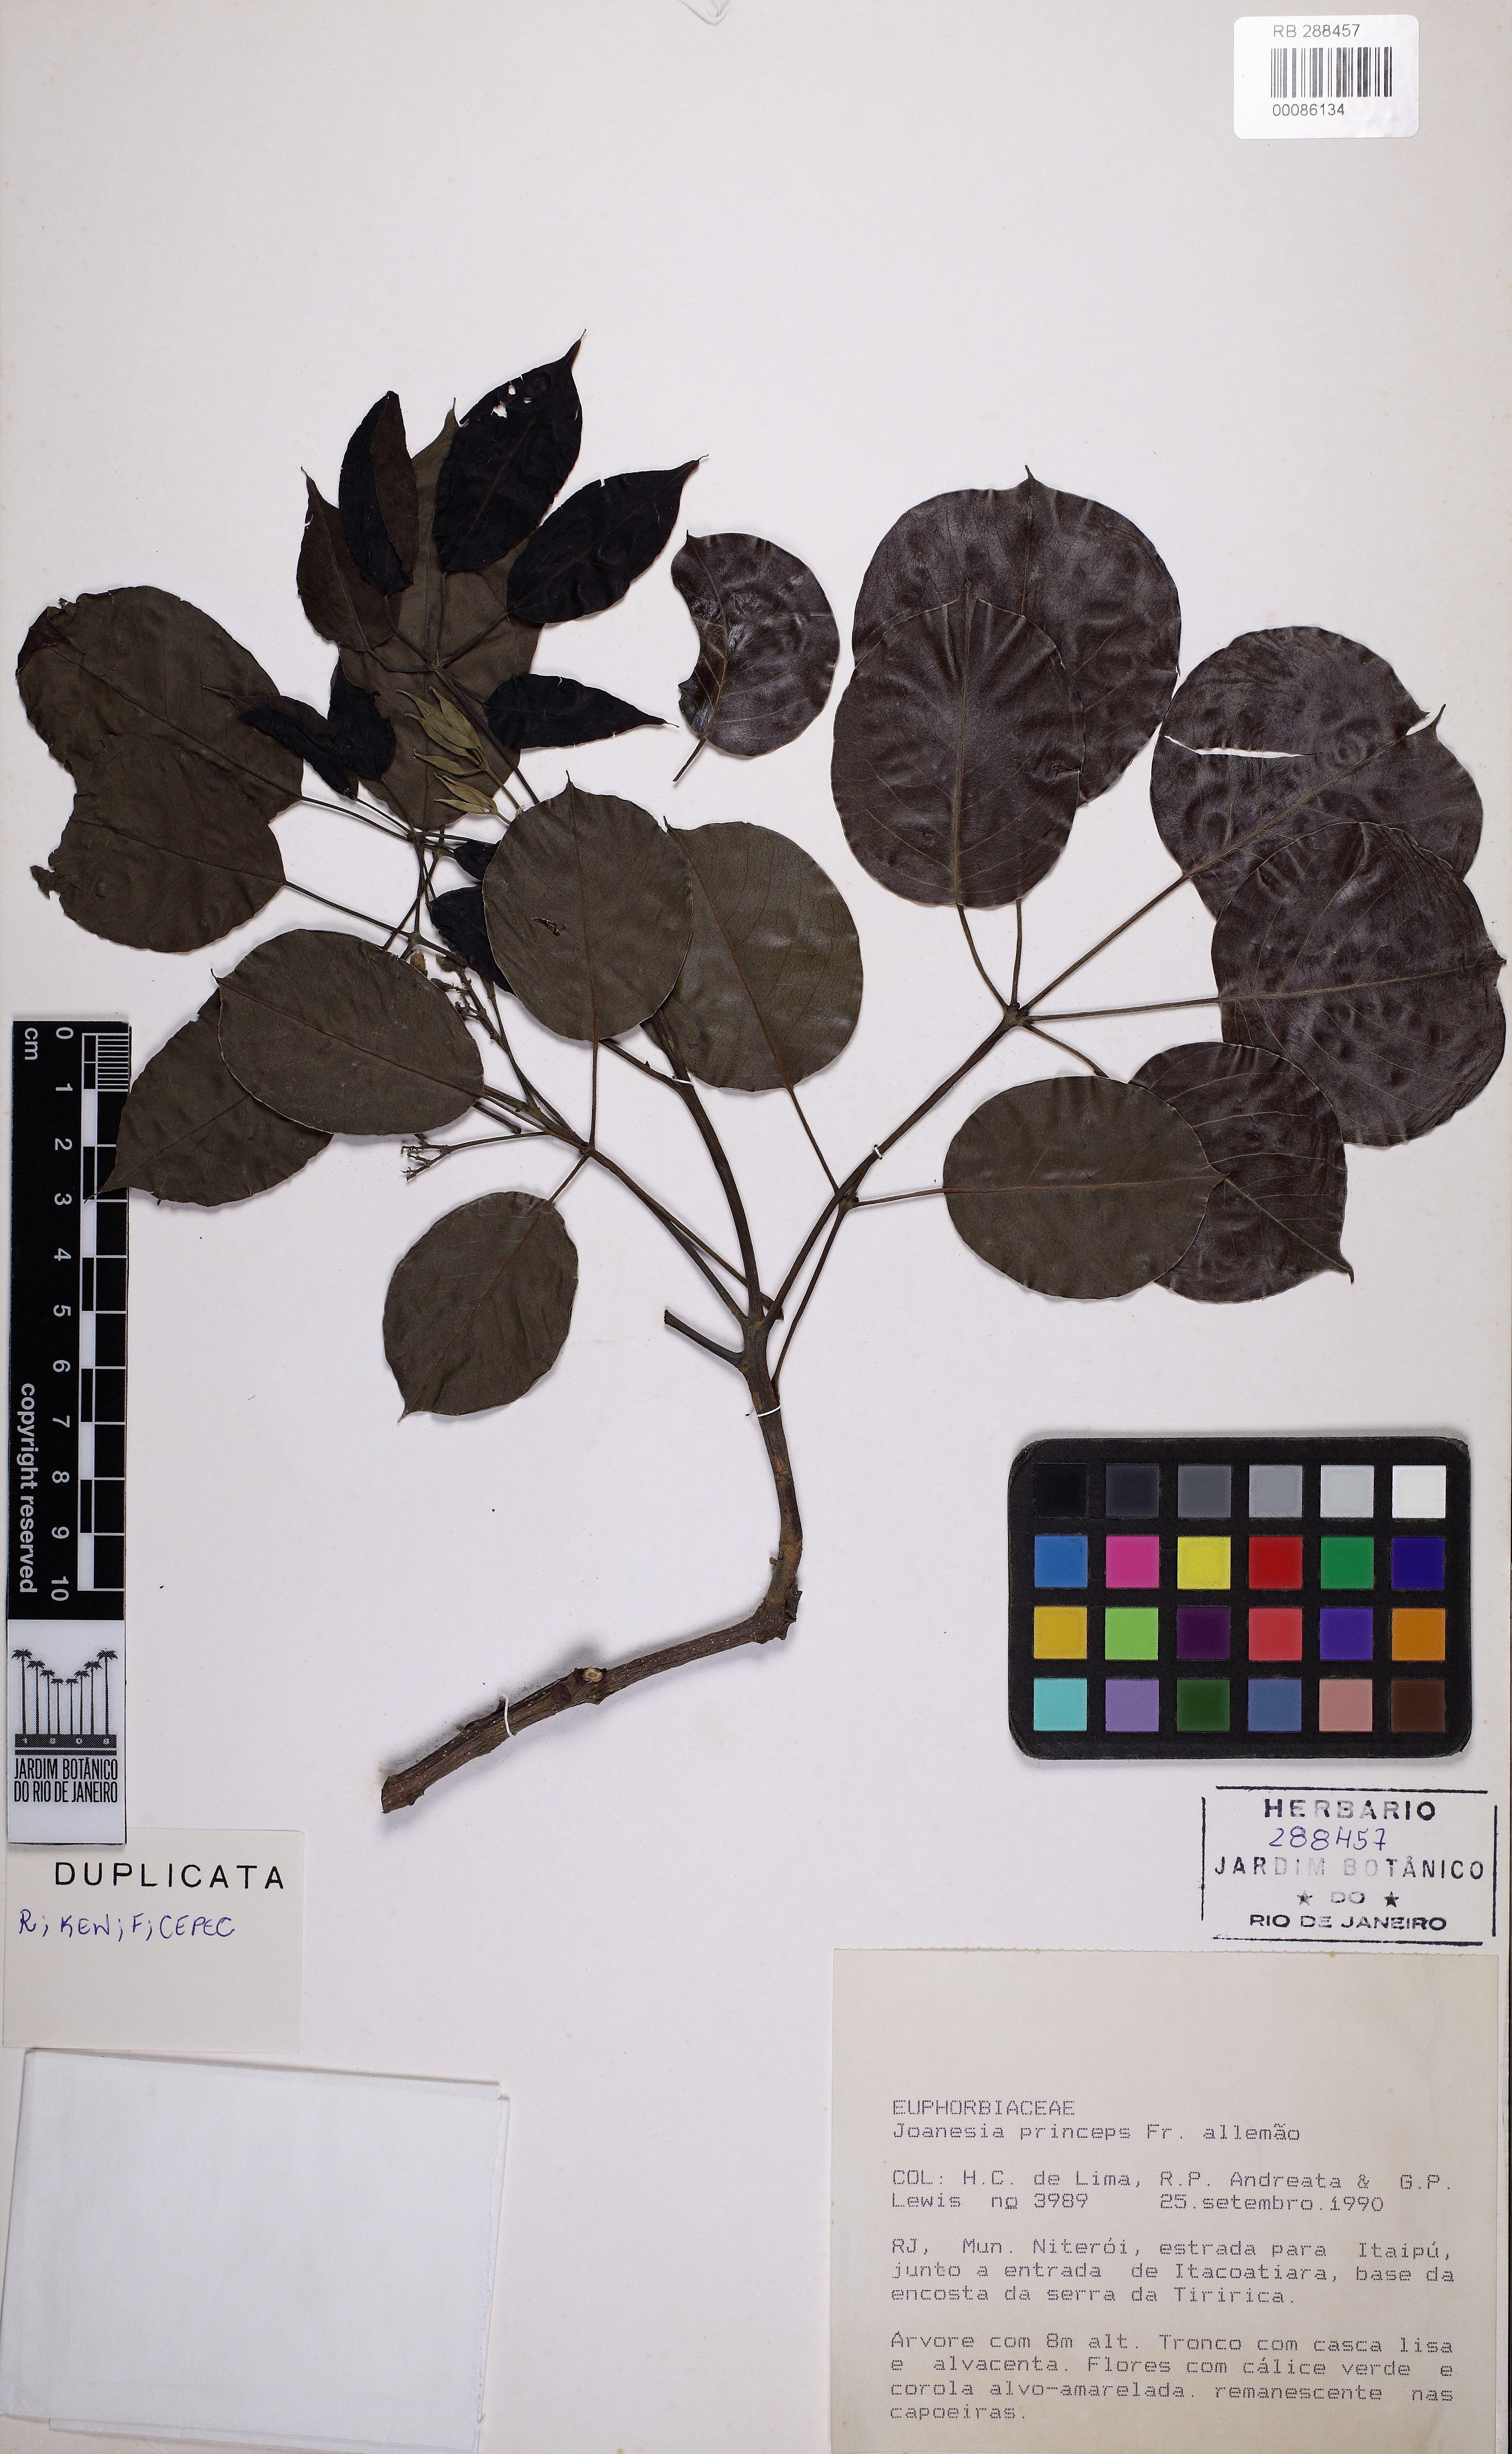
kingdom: Plantae
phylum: Tracheophyta
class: Magnoliopsida
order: Malpighiales
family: Euphorbiaceae
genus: Joannesia
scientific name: Joannesia princeps
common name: Arara nut-tree
